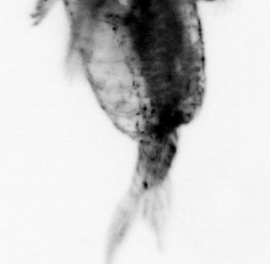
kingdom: Animalia
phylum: Arthropoda
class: Copepoda
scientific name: Copepoda
